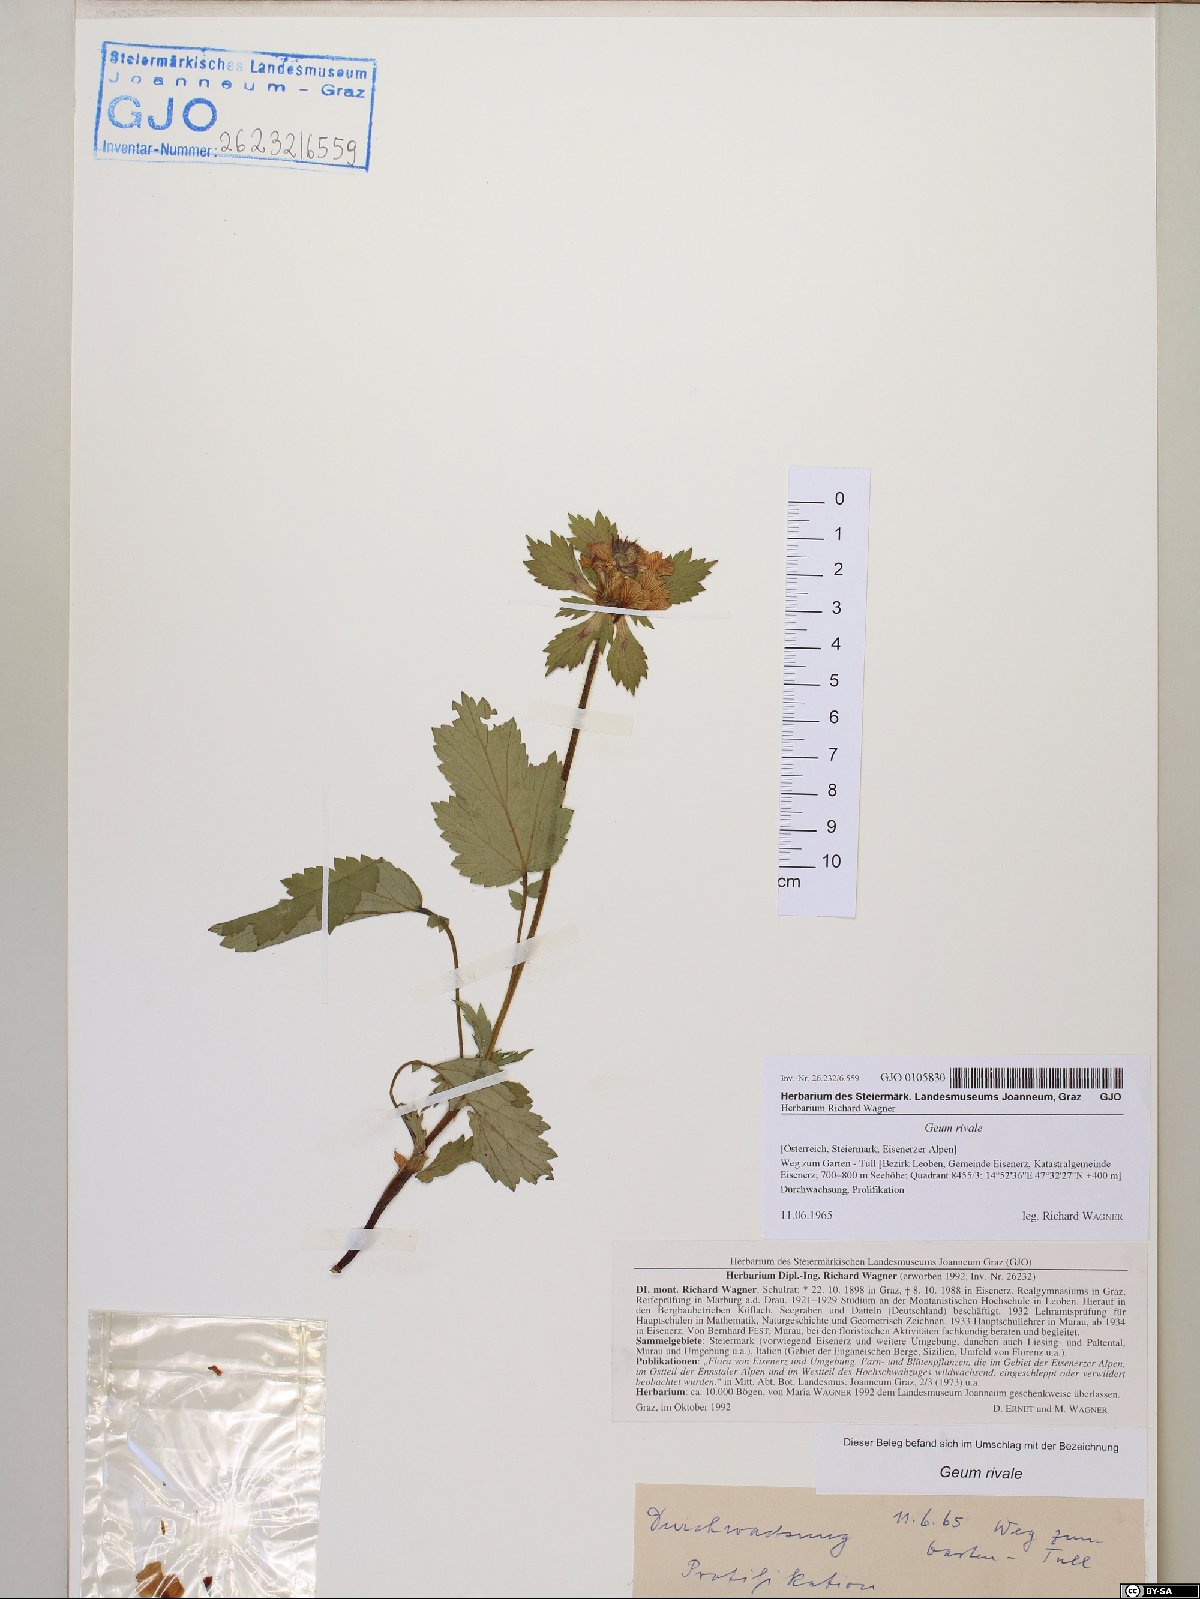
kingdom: Plantae
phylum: Tracheophyta
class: Magnoliopsida
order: Rosales
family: Rosaceae
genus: Geum
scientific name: Geum rivale
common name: Water avens
